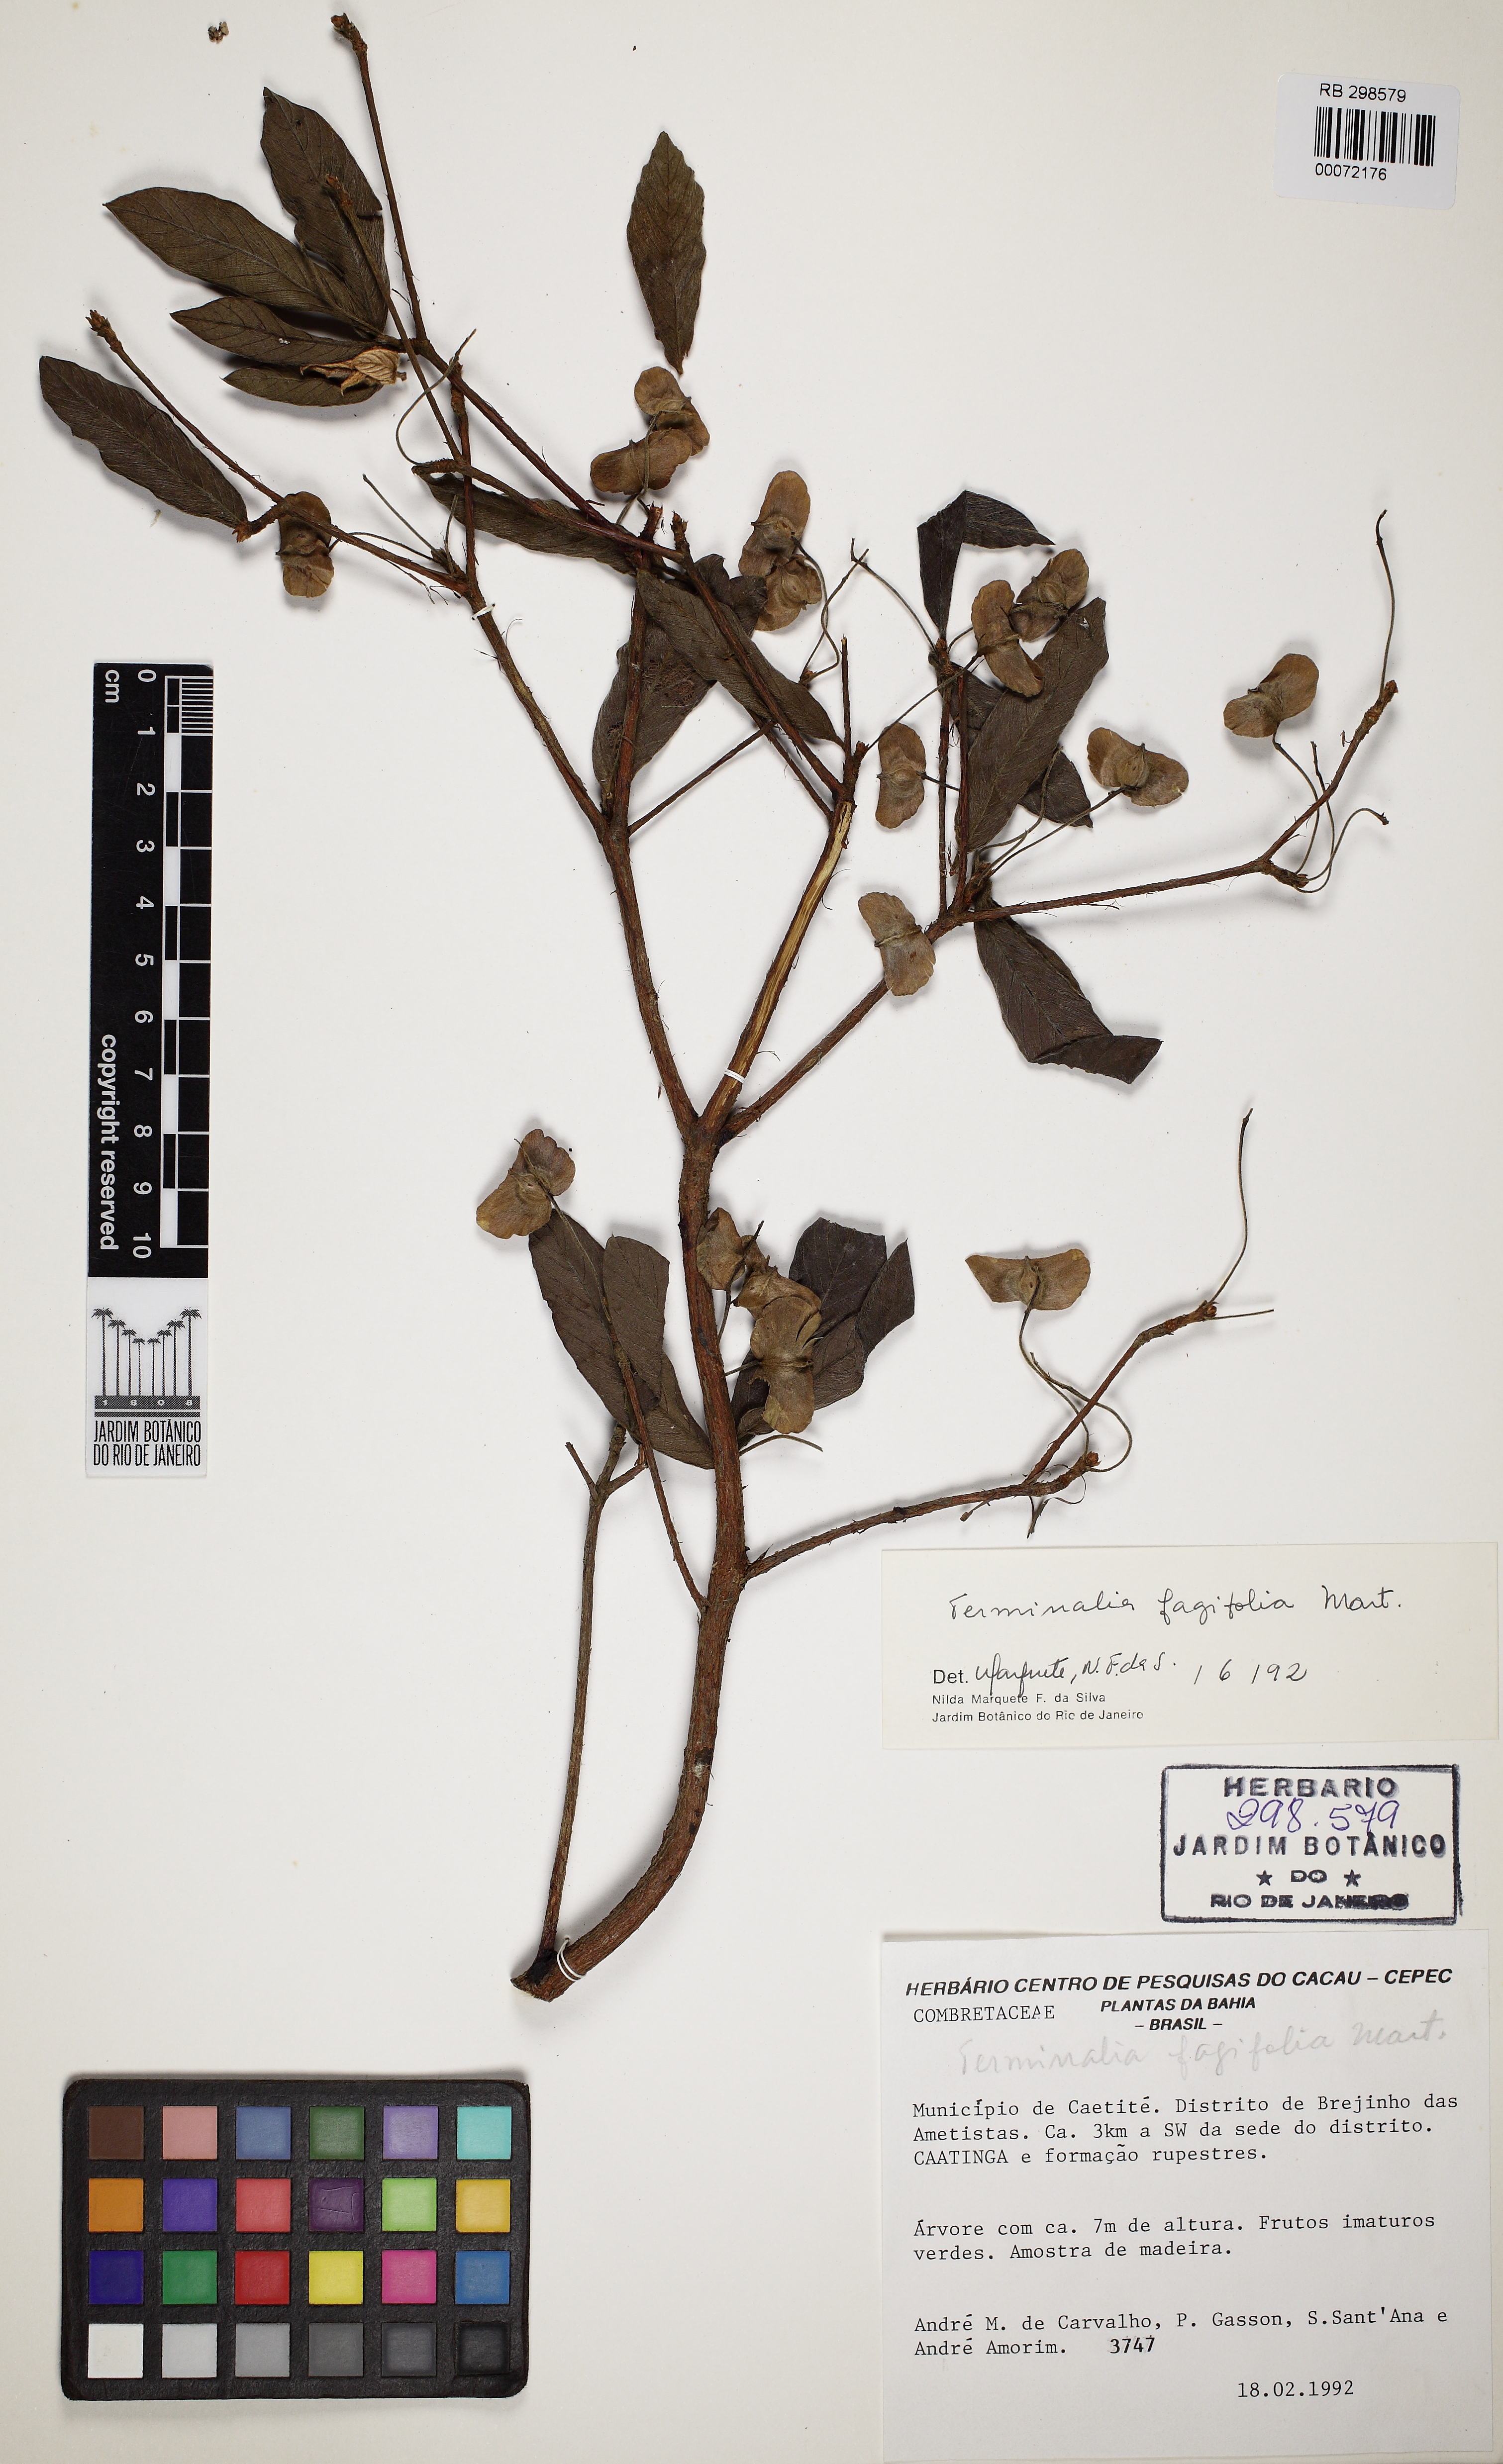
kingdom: Plantae
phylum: Tracheophyta
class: Magnoliopsida
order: Myrtales
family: Combretaceae
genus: Terminalia
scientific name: Terminalia fagifolia
